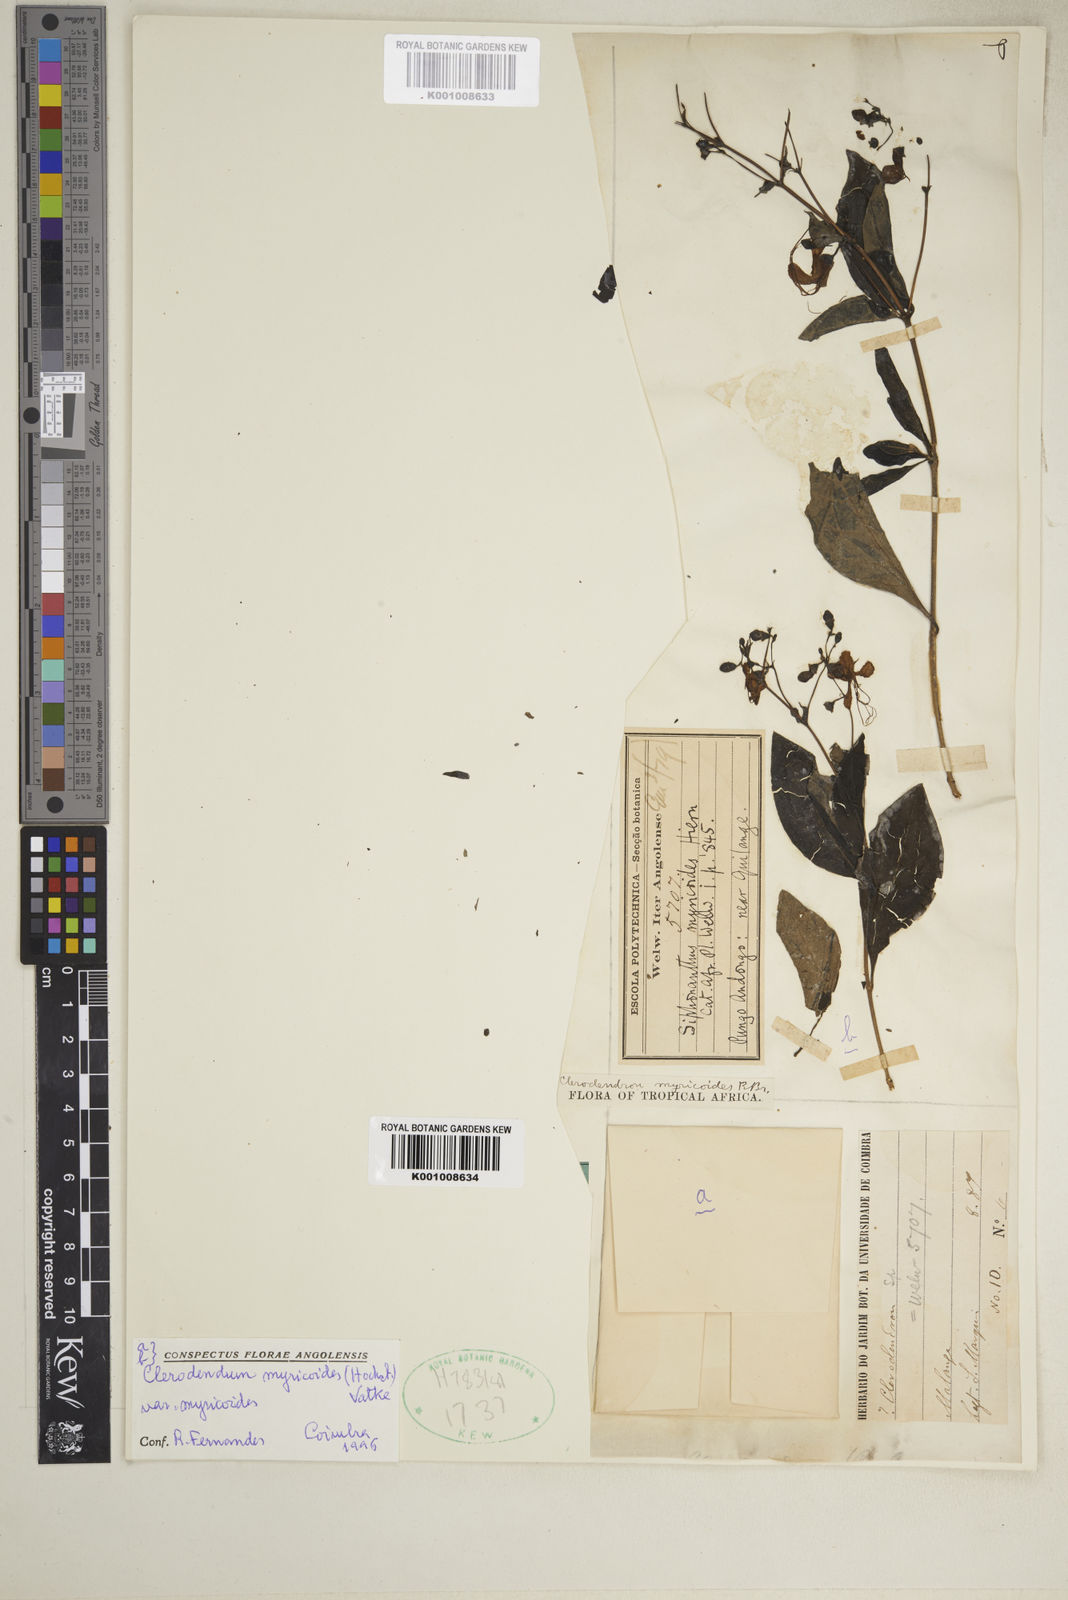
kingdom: Plantae
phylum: Tracheophyta
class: Magnoliopsida
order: Lamiales
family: Lamiaceae
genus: Rotheca
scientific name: Rotheca myricoides
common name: Cats-whiskers
